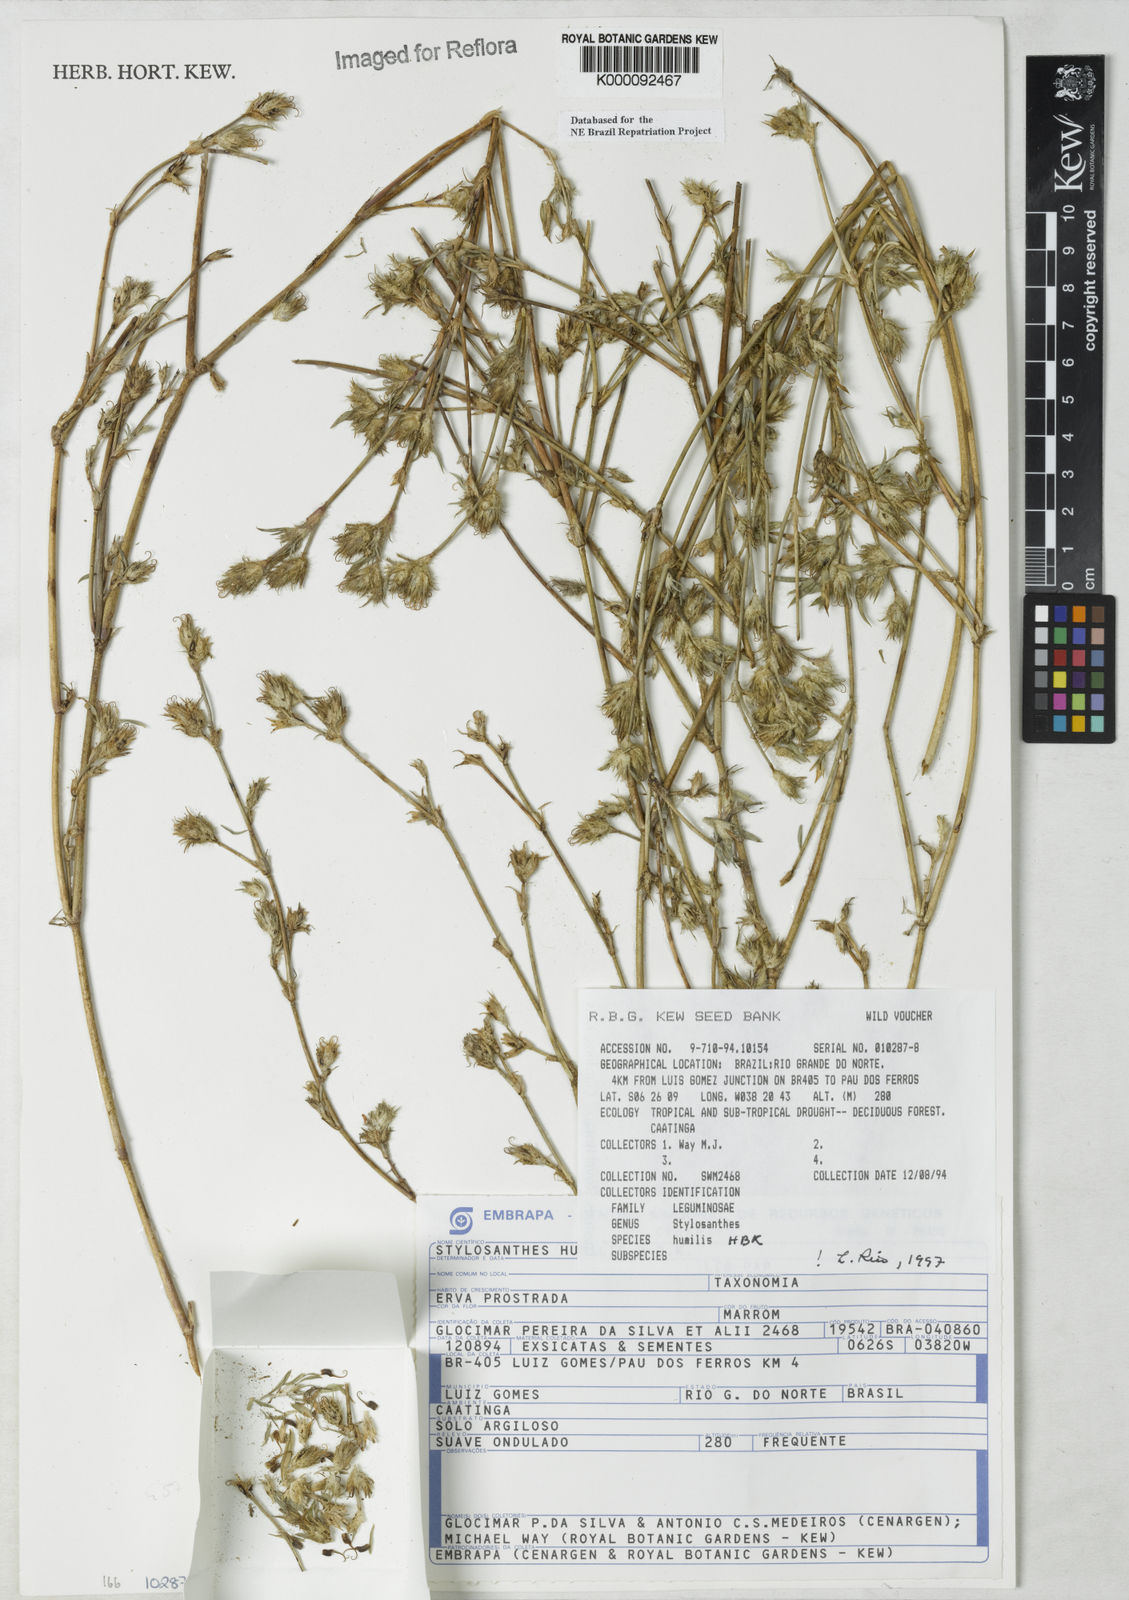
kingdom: Plantae
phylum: Tracheophyta
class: Magnoliopsida
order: Fabales
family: Fabaceae
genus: Stylosanthes
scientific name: Stylosanthes humilis
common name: Townsville stylo
